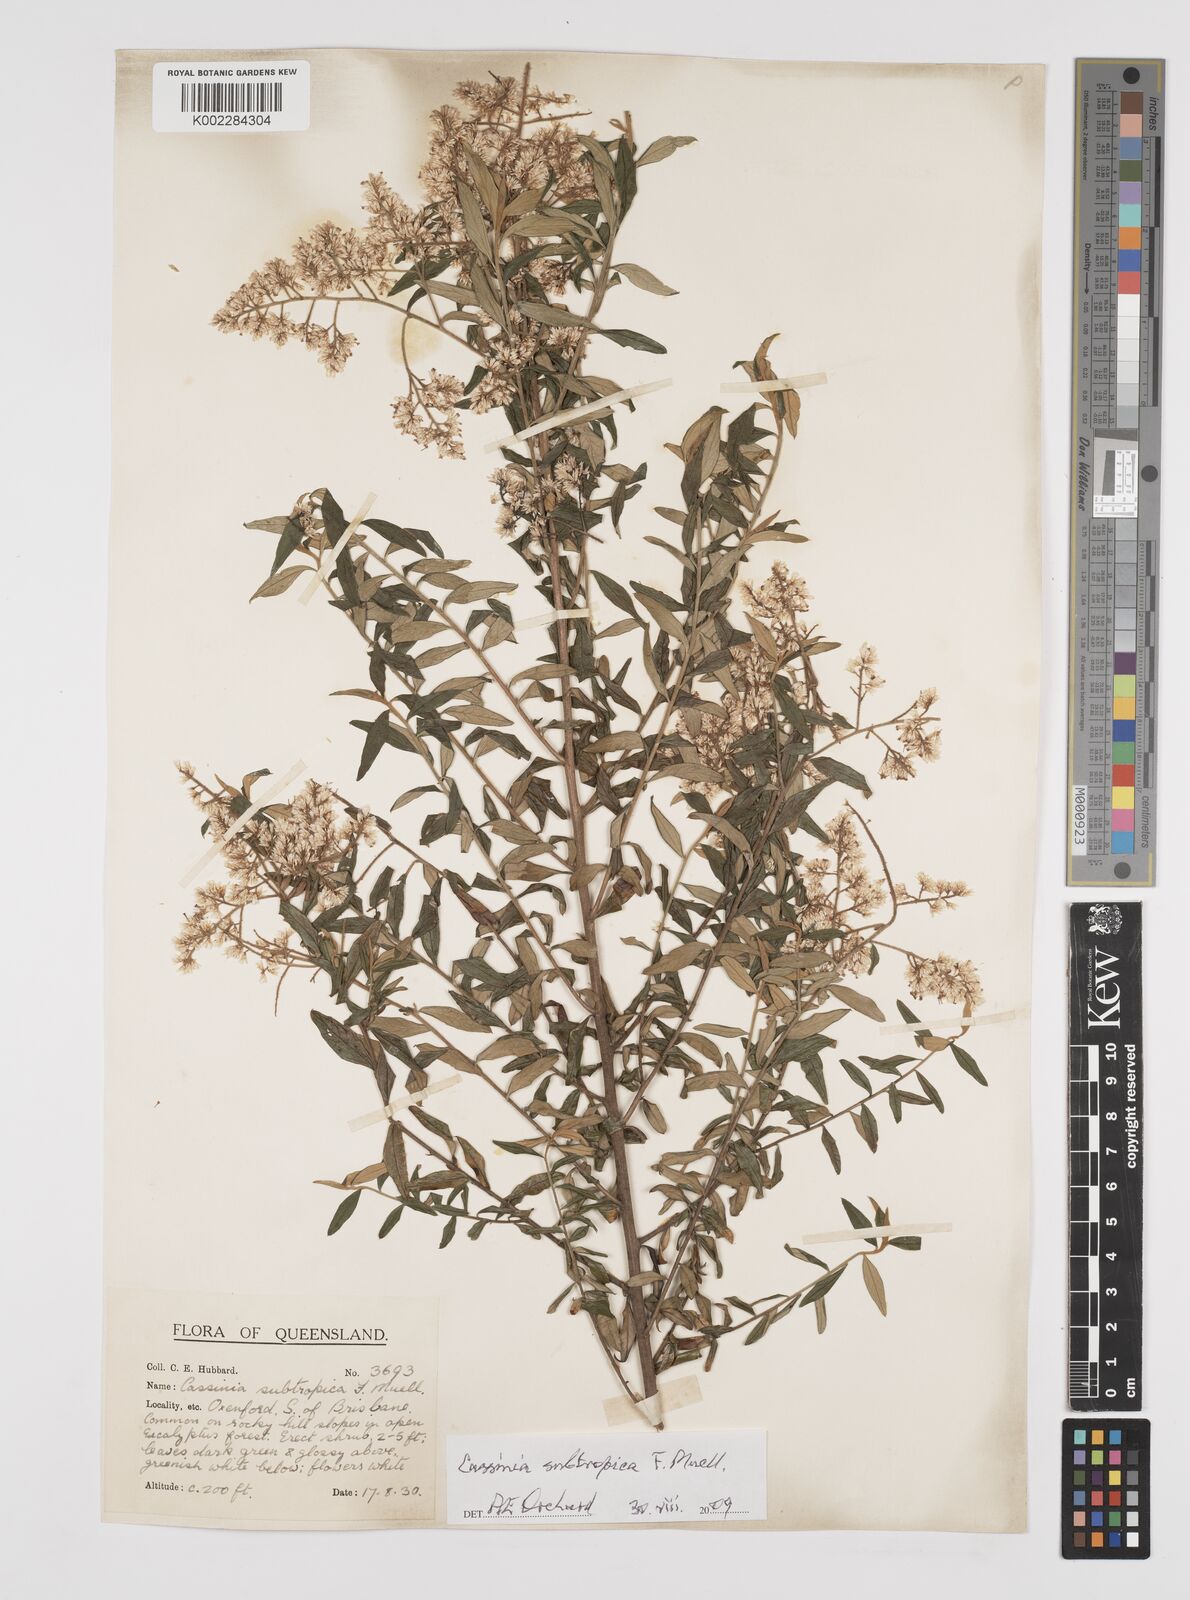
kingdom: Plantae
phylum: Tracheophyta
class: Magnoliopsida
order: Asterales
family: Asteraceae
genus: Cassinia
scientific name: Cassinia subtropica
